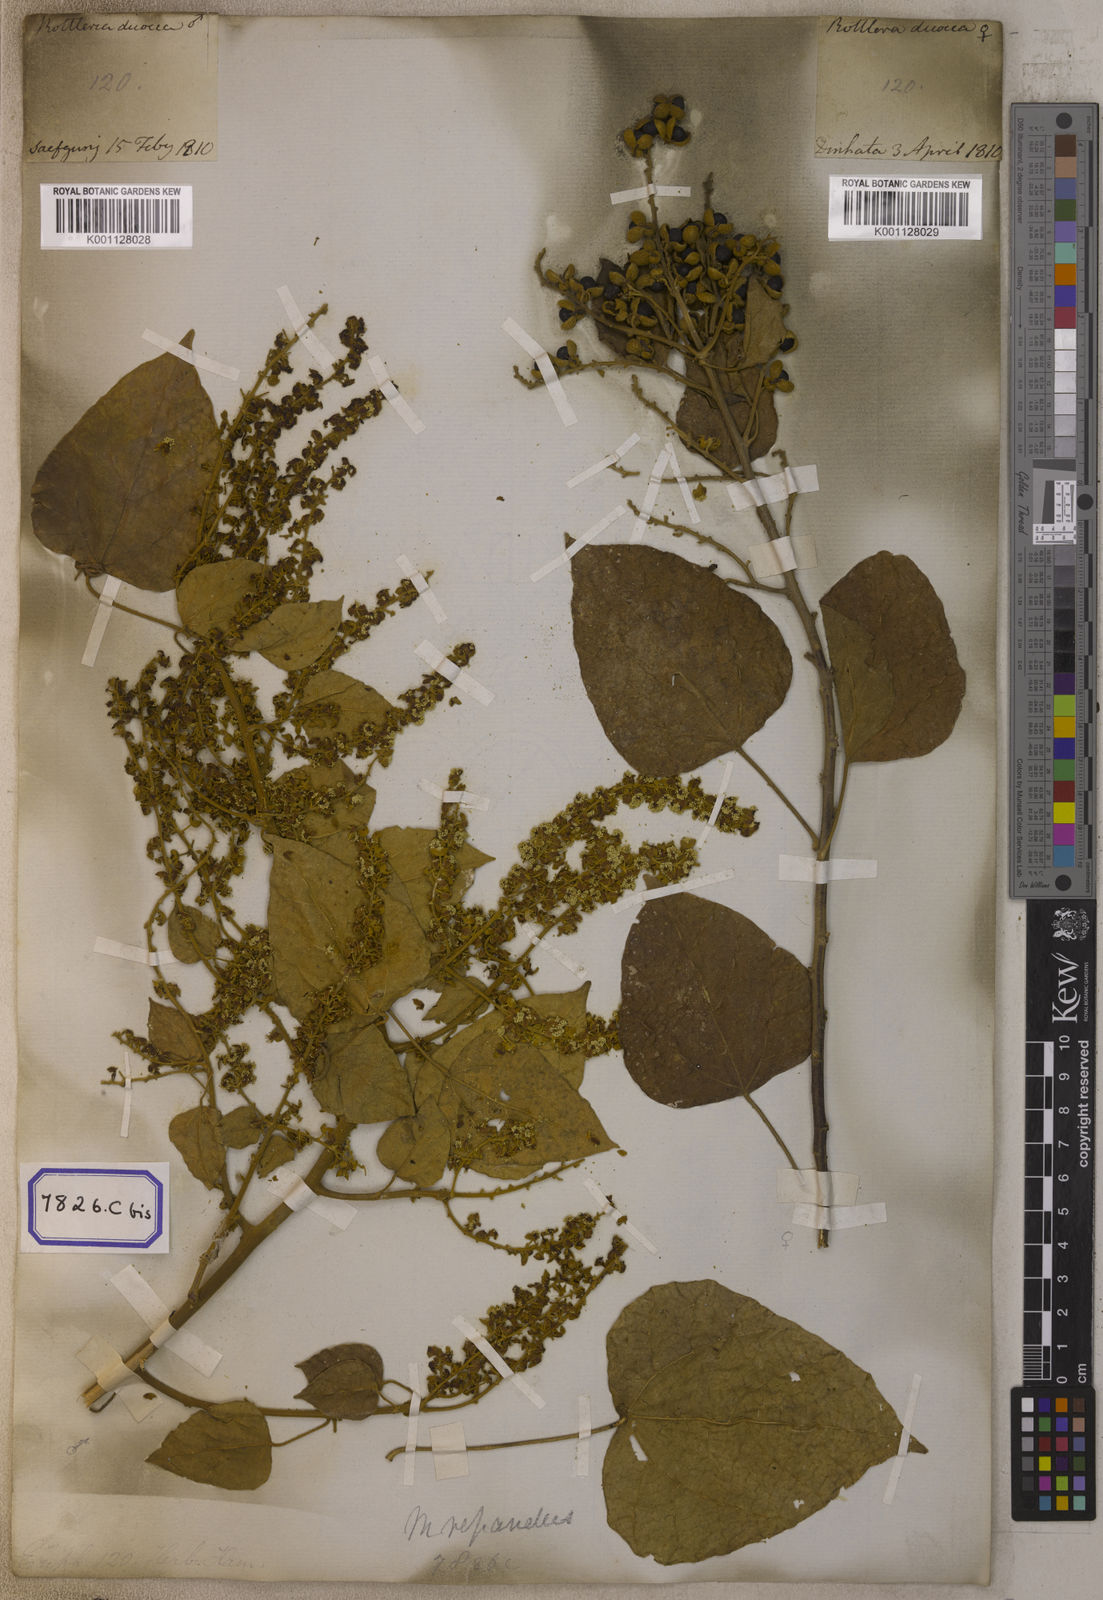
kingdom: Plantae
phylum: Tracheophyta
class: Magnoliopsida
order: Malpighiales
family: Euphorbiaceae
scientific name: Euphorbiaceae
